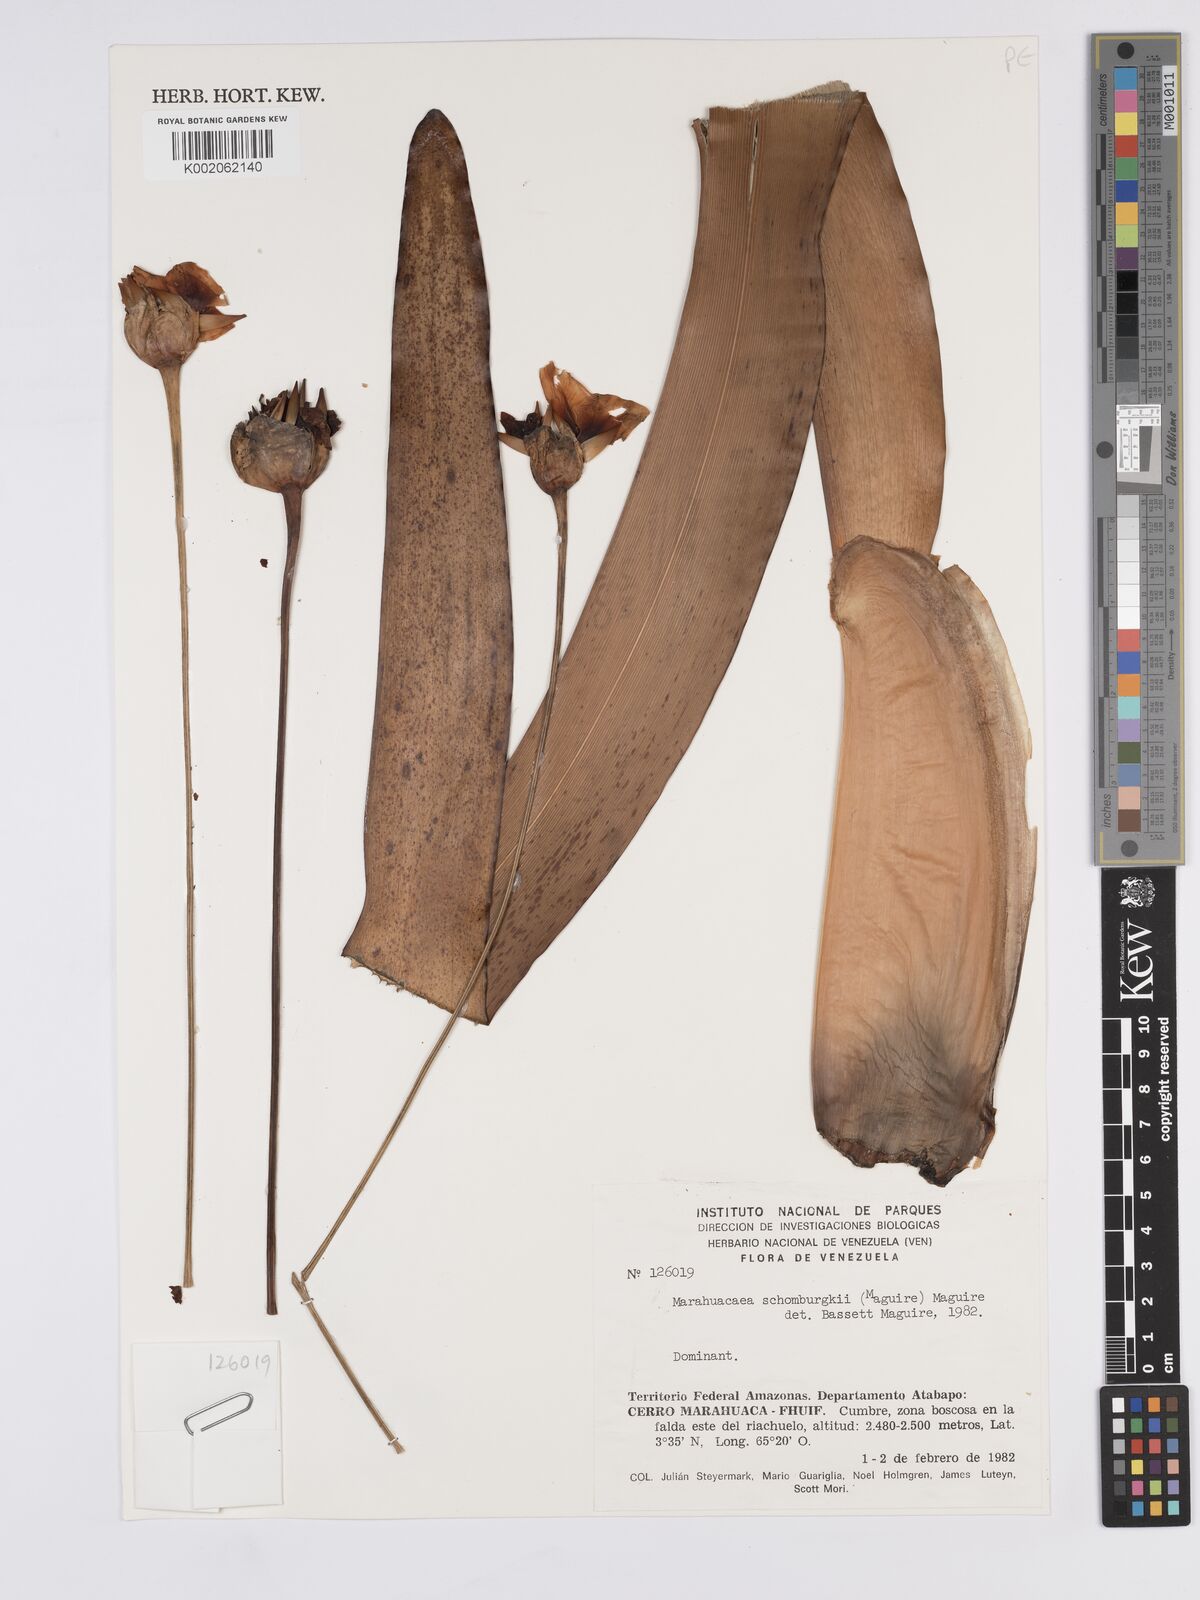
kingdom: Plantae
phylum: Tracheophyta
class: Liliopsida
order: Poales
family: Rapateaceae
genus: Marahuacaea
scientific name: Marahuacaea schomburgkii
